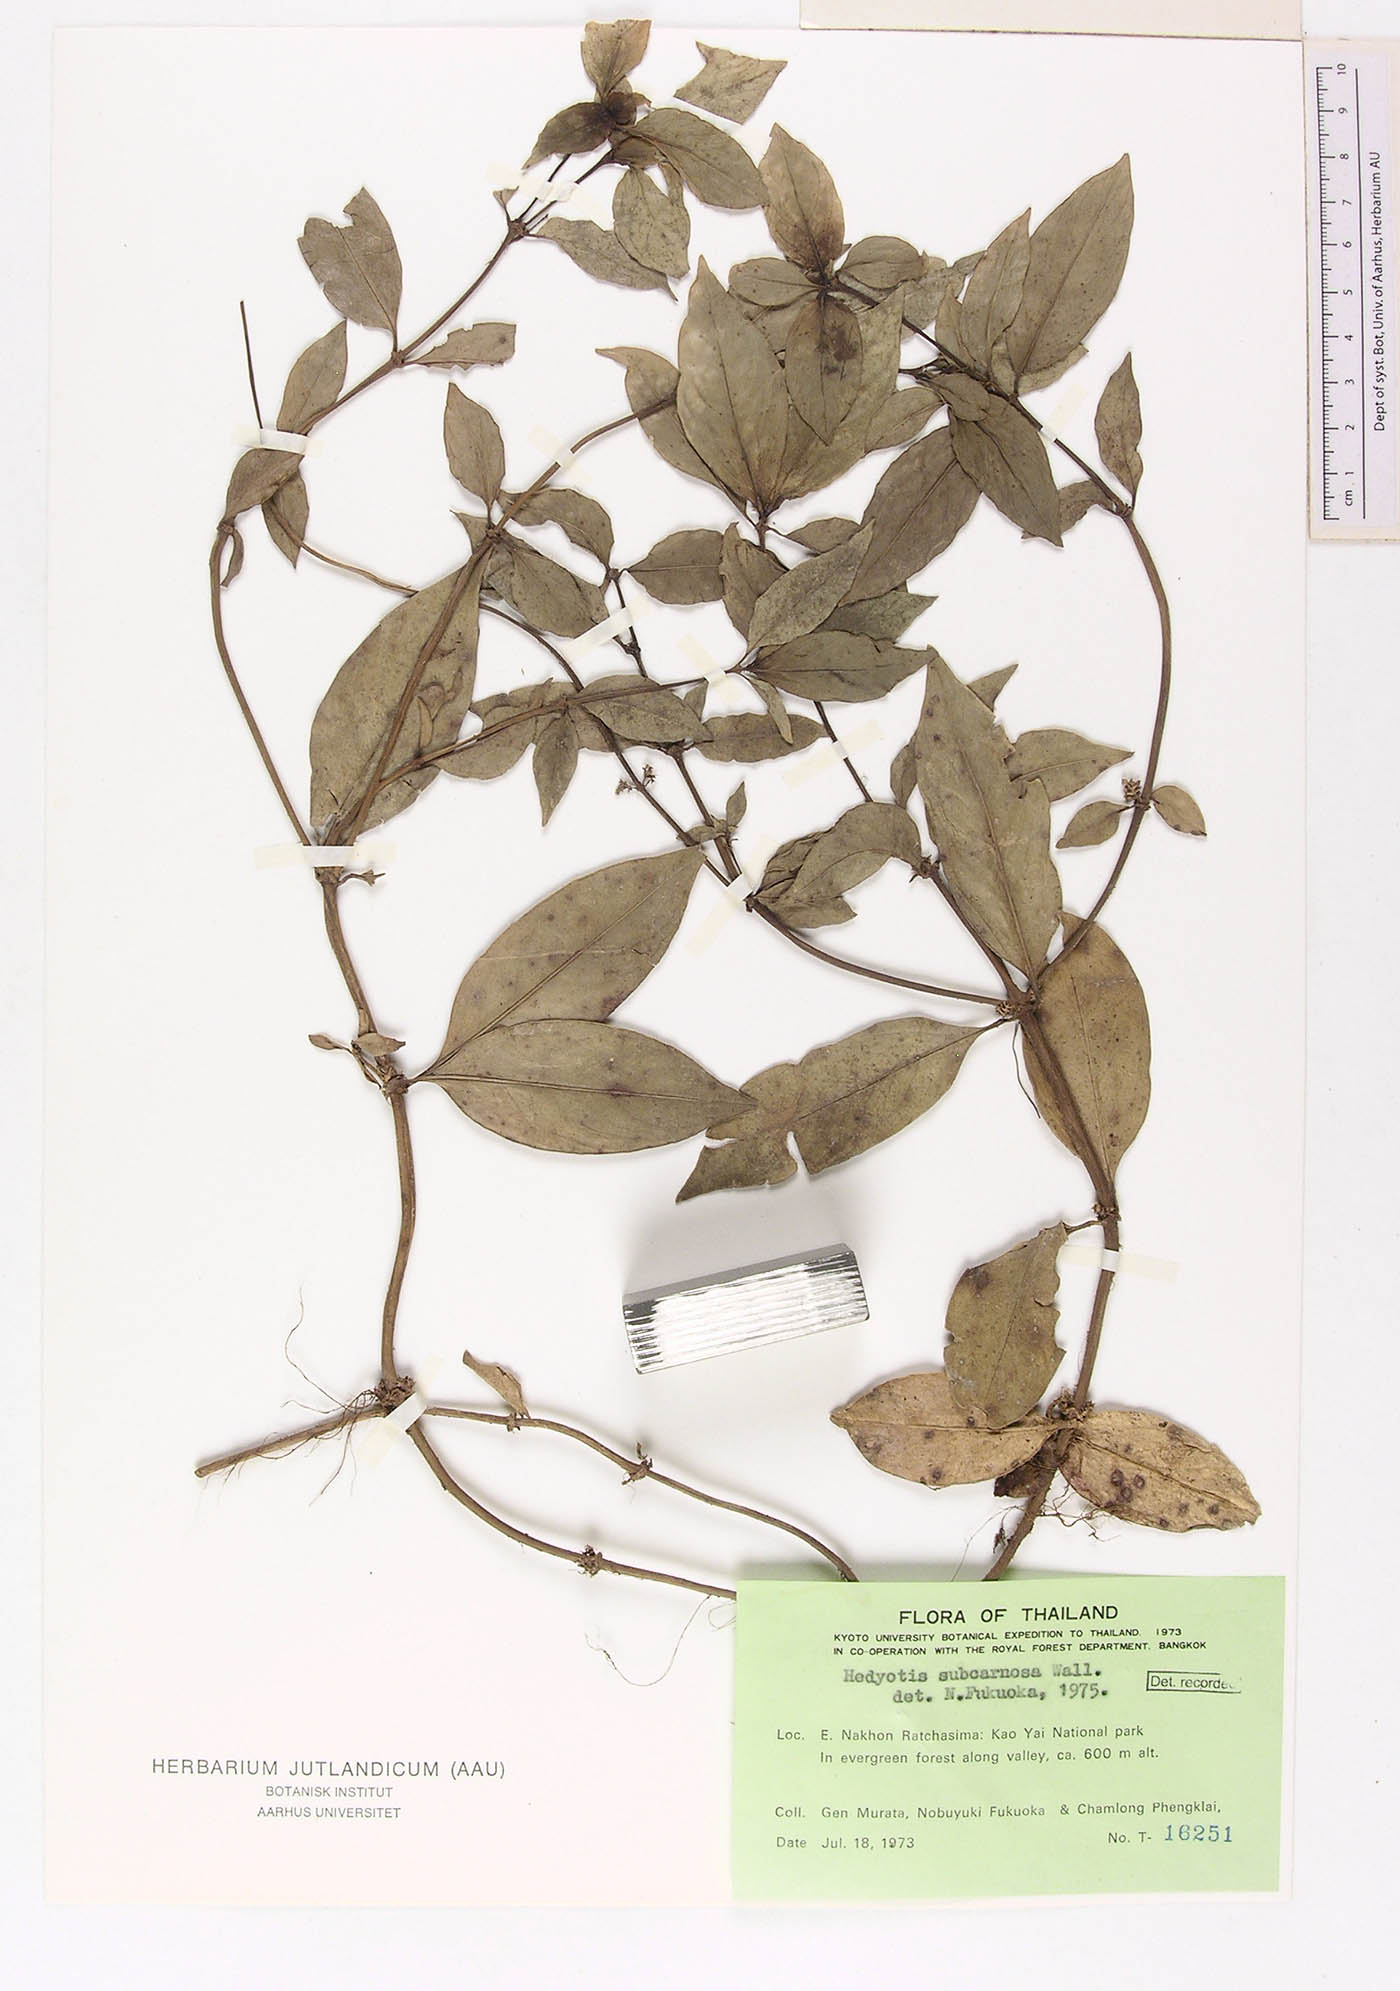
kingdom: Plantae
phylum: Tracheophyta
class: Magnoliopsida
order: Gentianales
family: Rubiaceae
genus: Hedyotis
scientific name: Hedyotis subcarnosa
